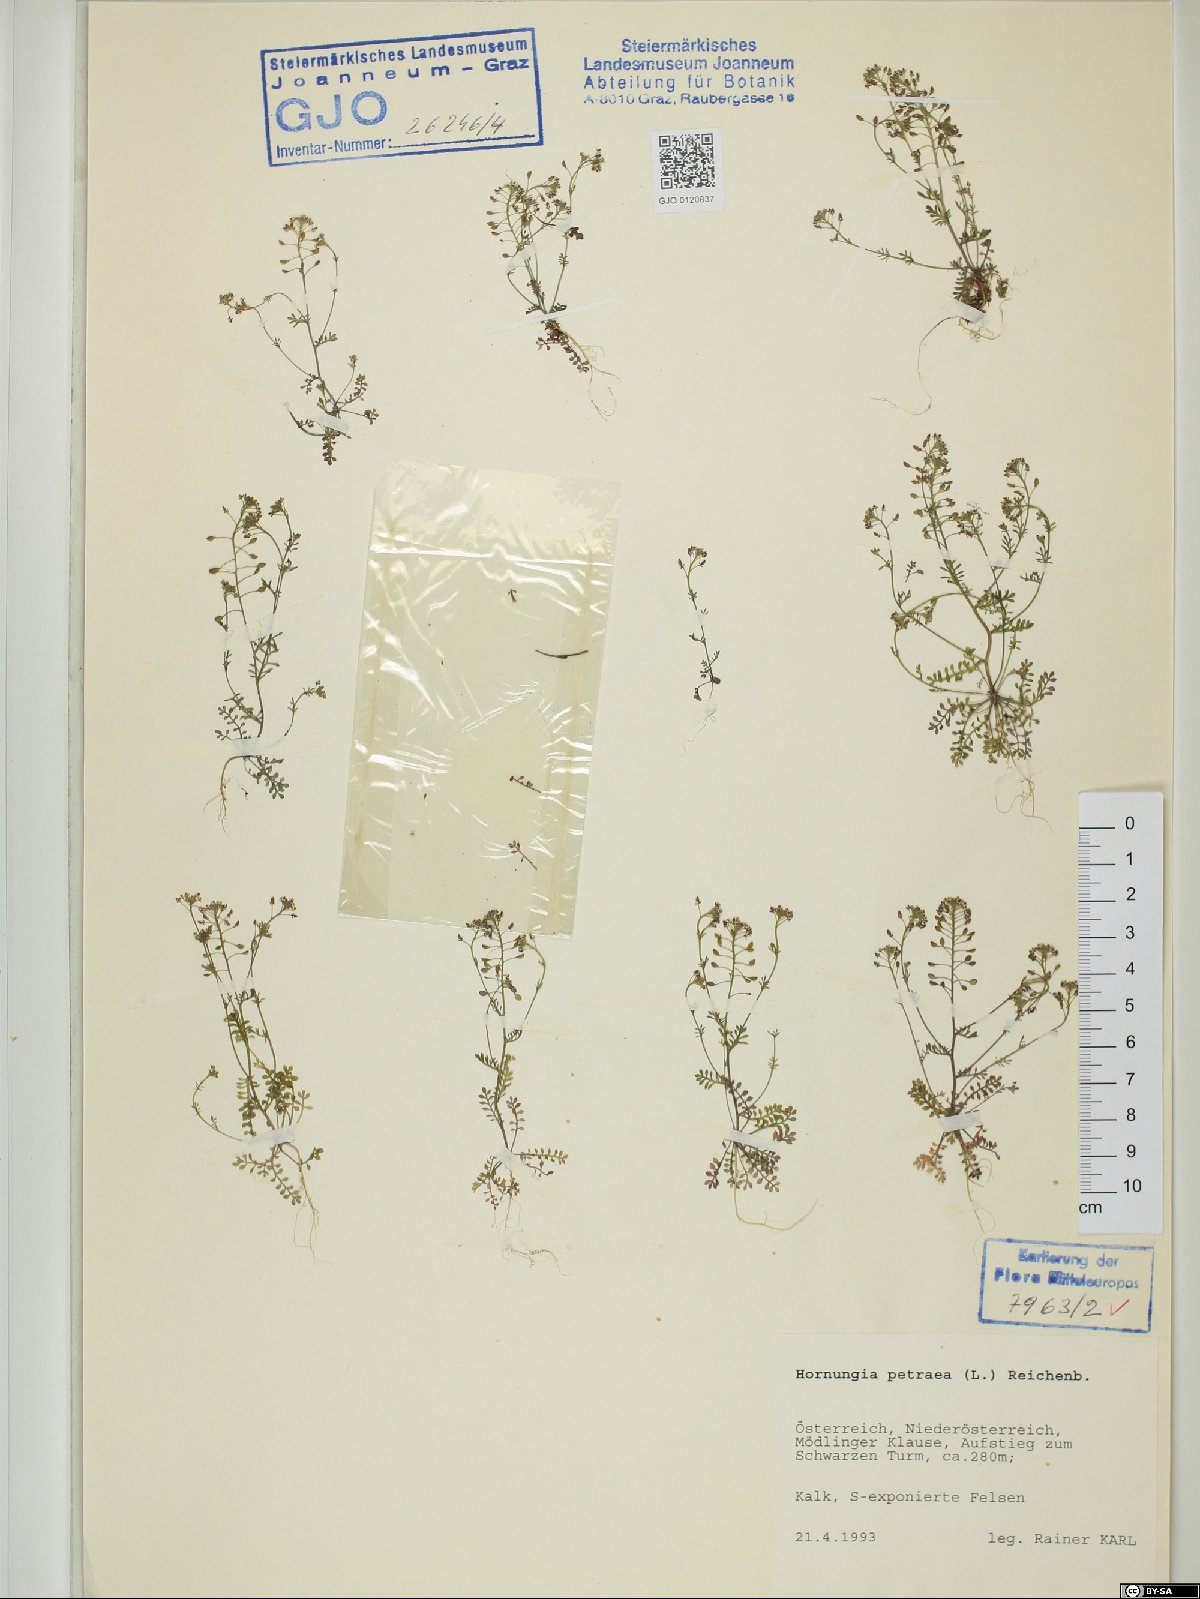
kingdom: Plantae
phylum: Tracheophyta
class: Magnoliopsida
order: Brassicales
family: Brassicaceae
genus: Hornungia
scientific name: Hornungia petraea
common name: Hutchinsia
